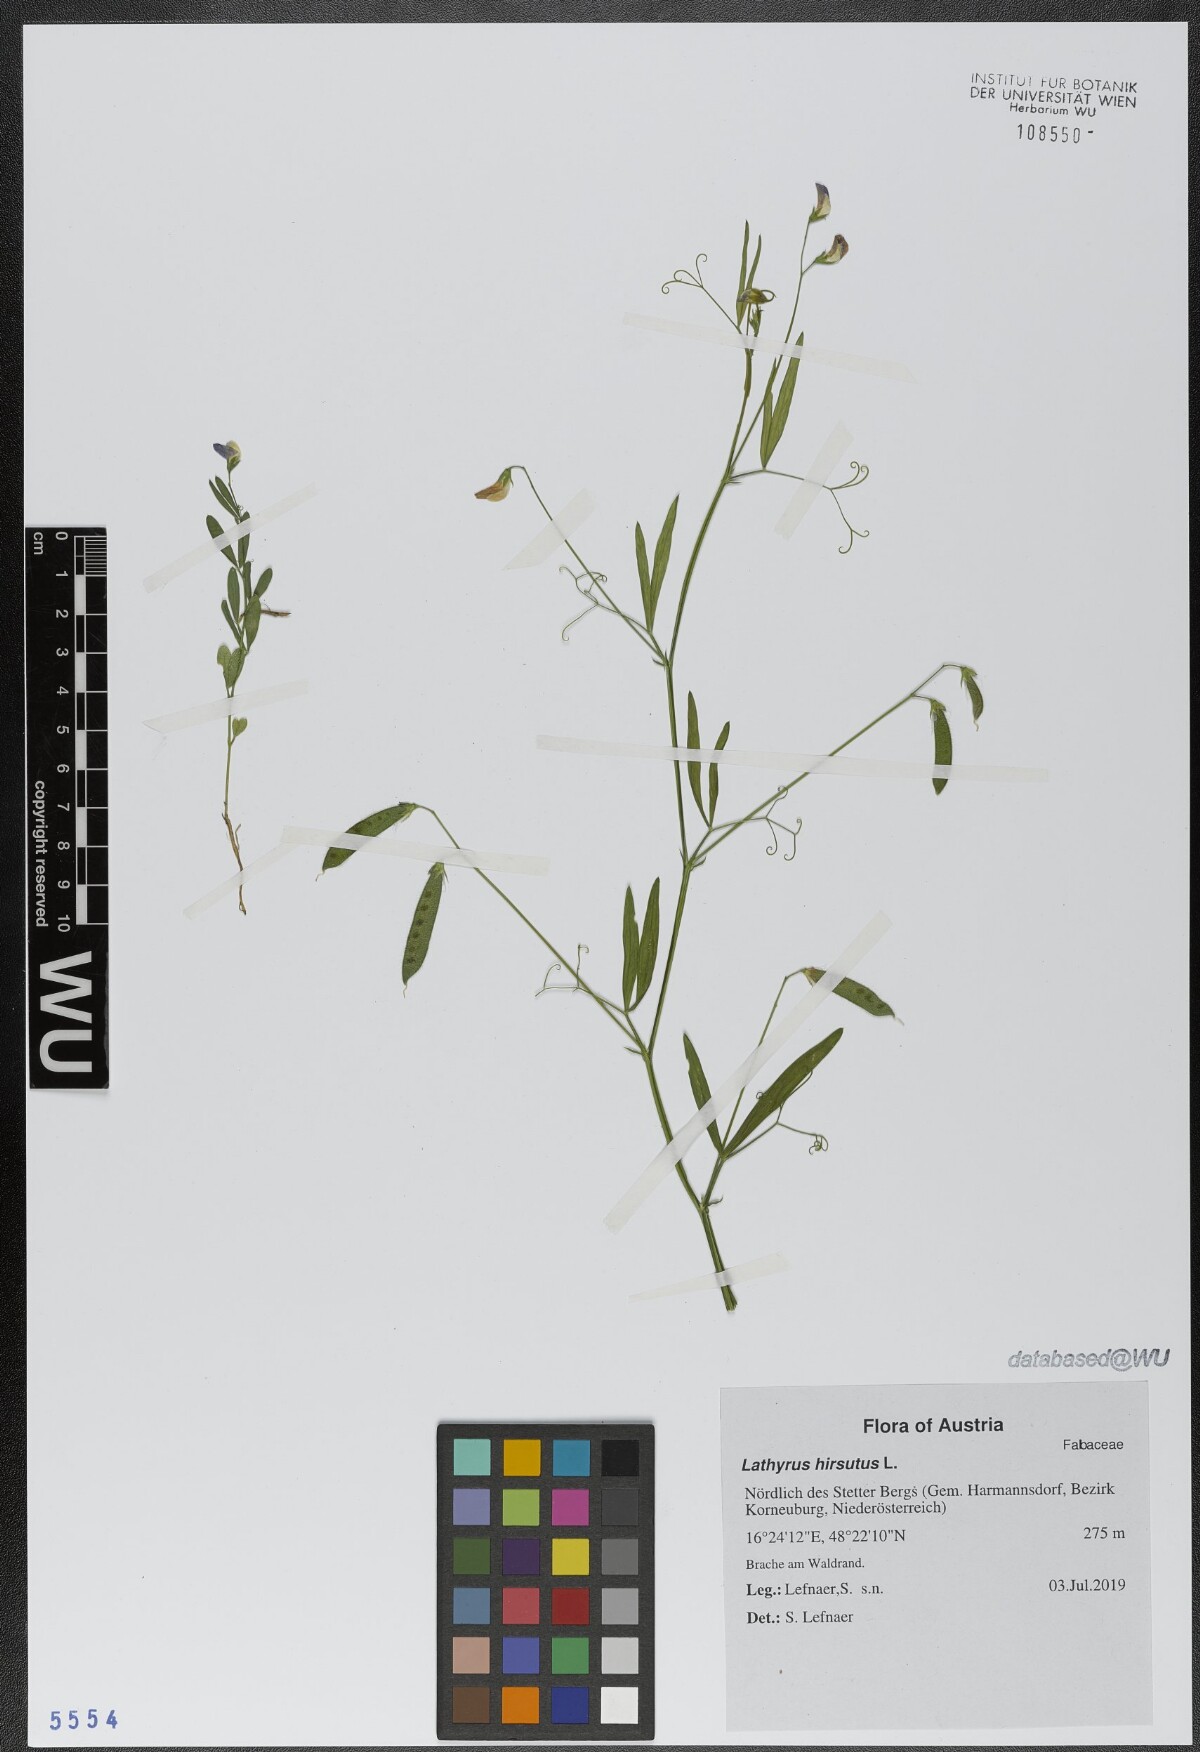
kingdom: Plantae
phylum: Tracheophyta
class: Magnoliopsida
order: Fabales
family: Fabaceae
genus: Lathyrus
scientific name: Lathyrus hirsutus
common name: Hairy vetchling
